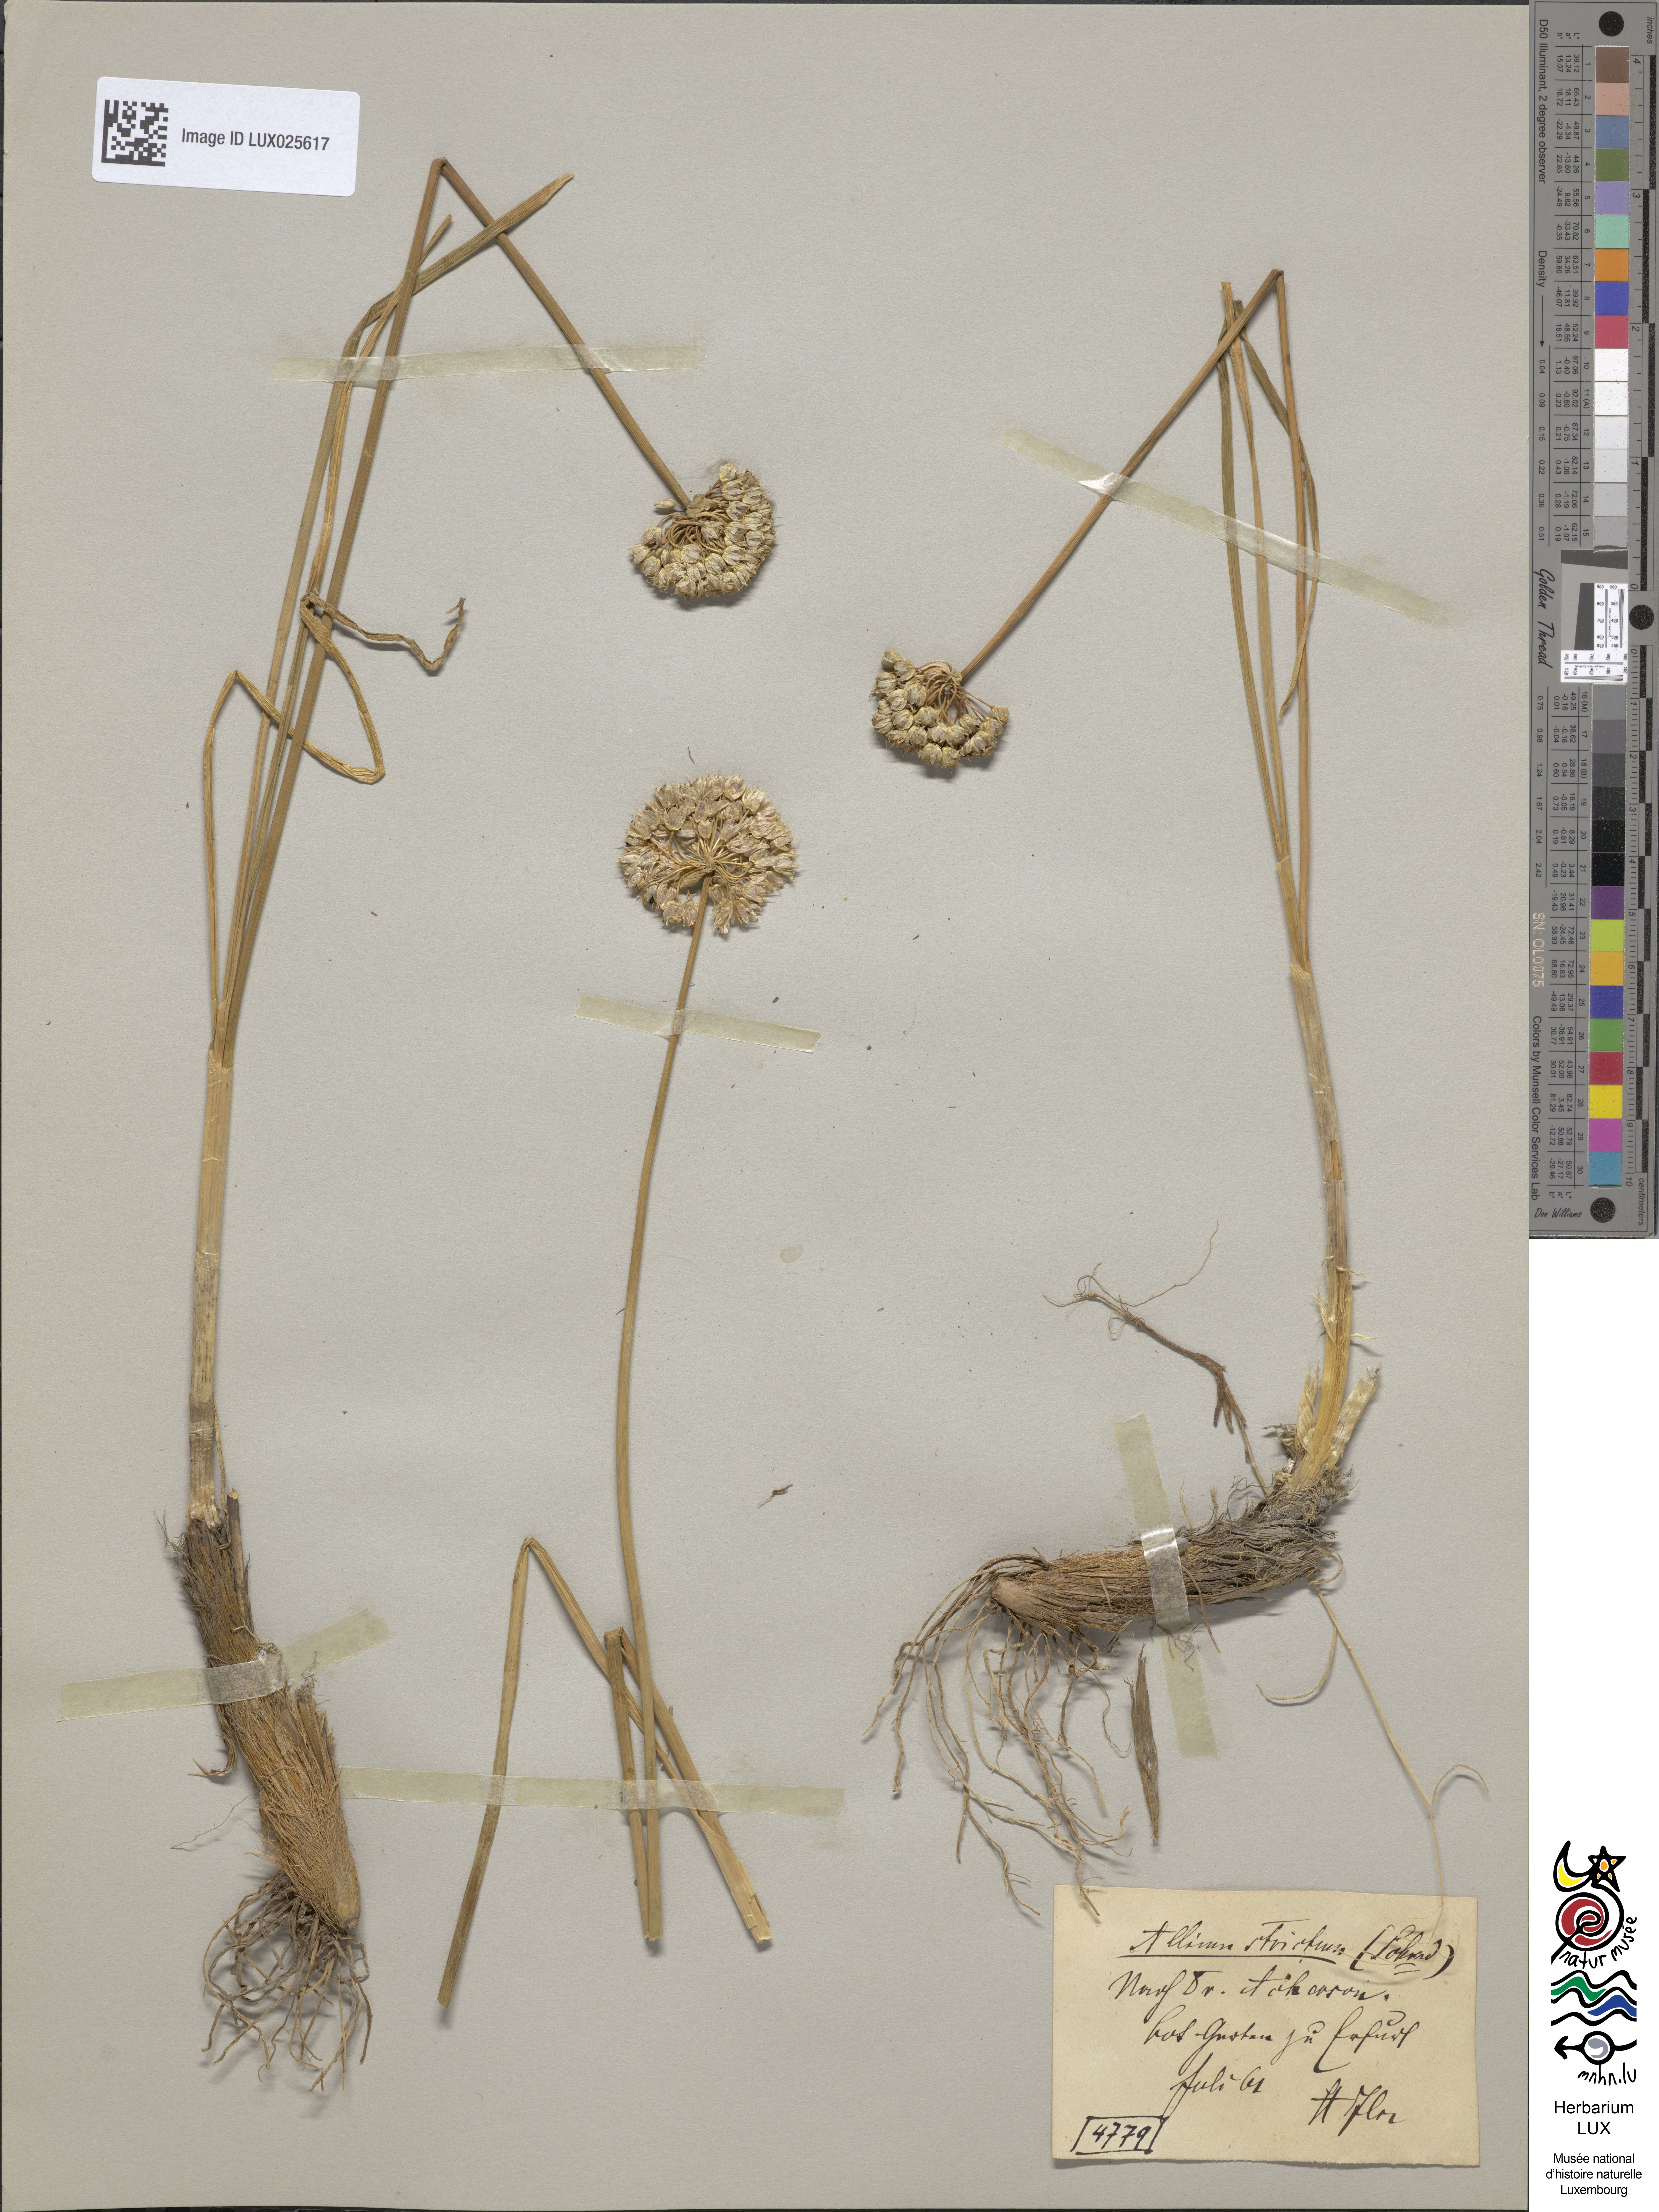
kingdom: Plantae
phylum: Tracheophyta
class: Liliopsida
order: Asparagales
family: Amaryllidaceae
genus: Allium
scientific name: Allium lineare
